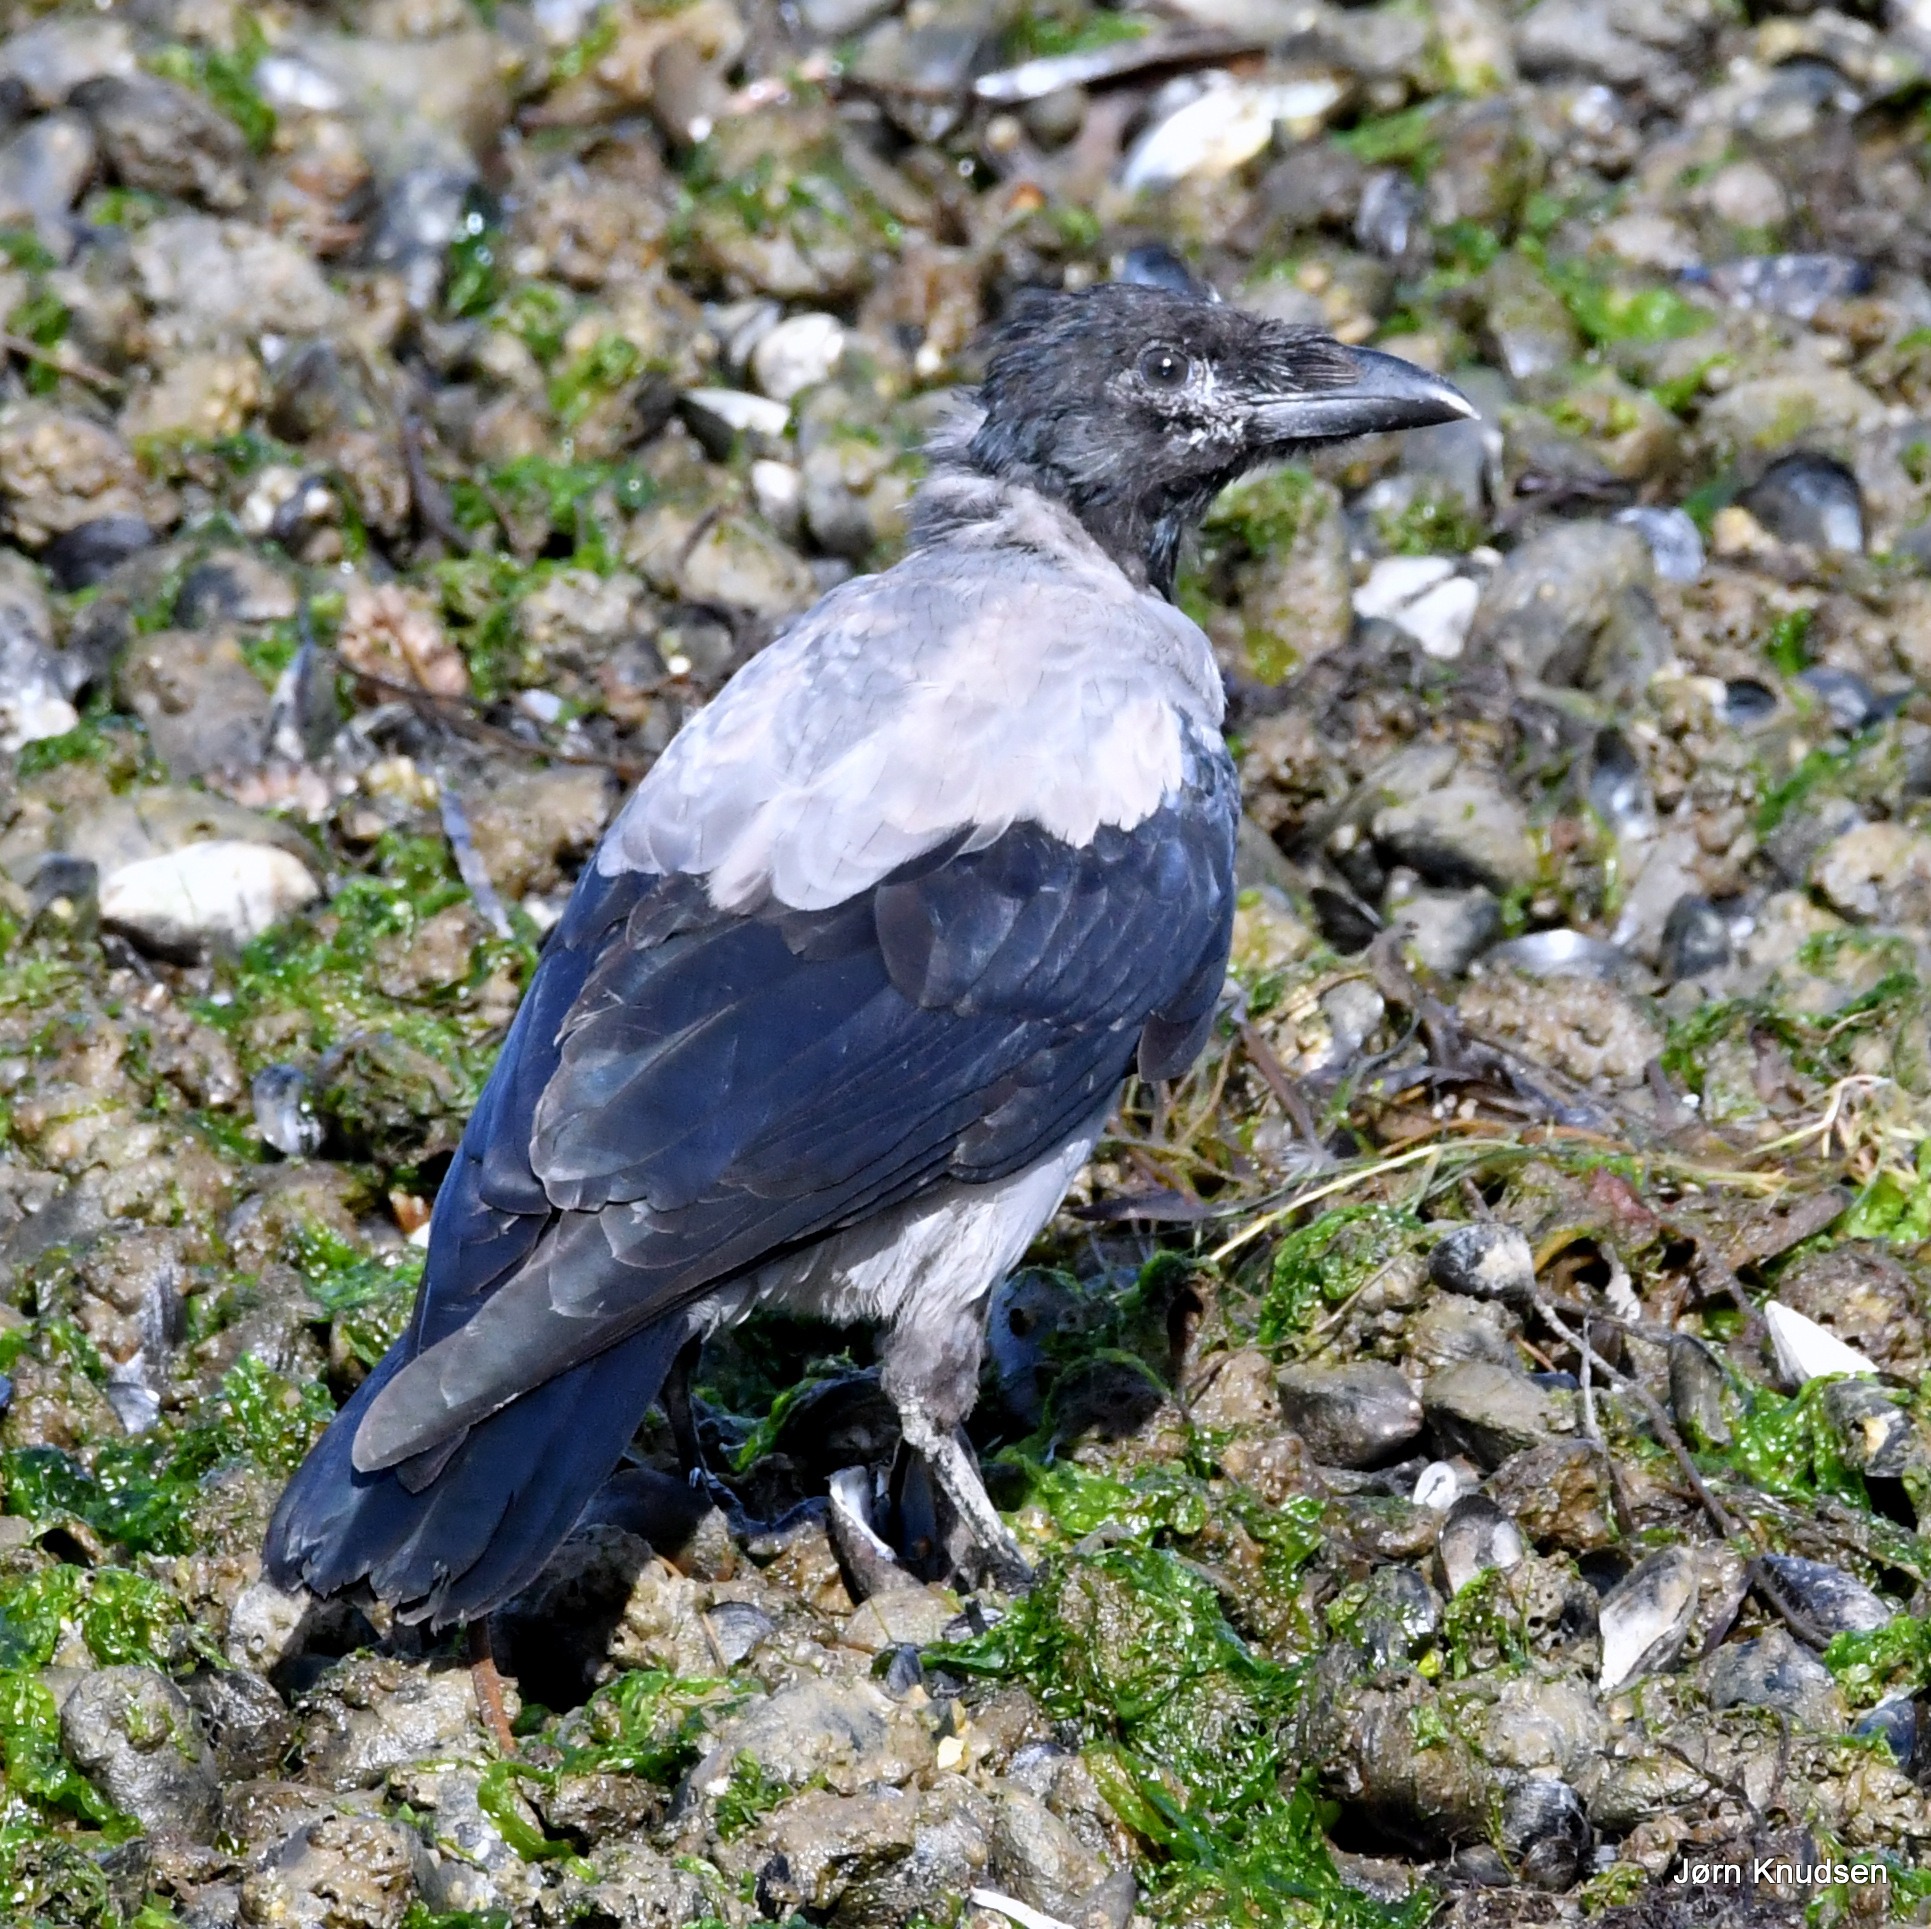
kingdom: Animalia
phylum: Chordata
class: Aves
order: Passeriformes
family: Corvidae
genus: Corvus
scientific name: Corvus cornix
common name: Gråkrage
